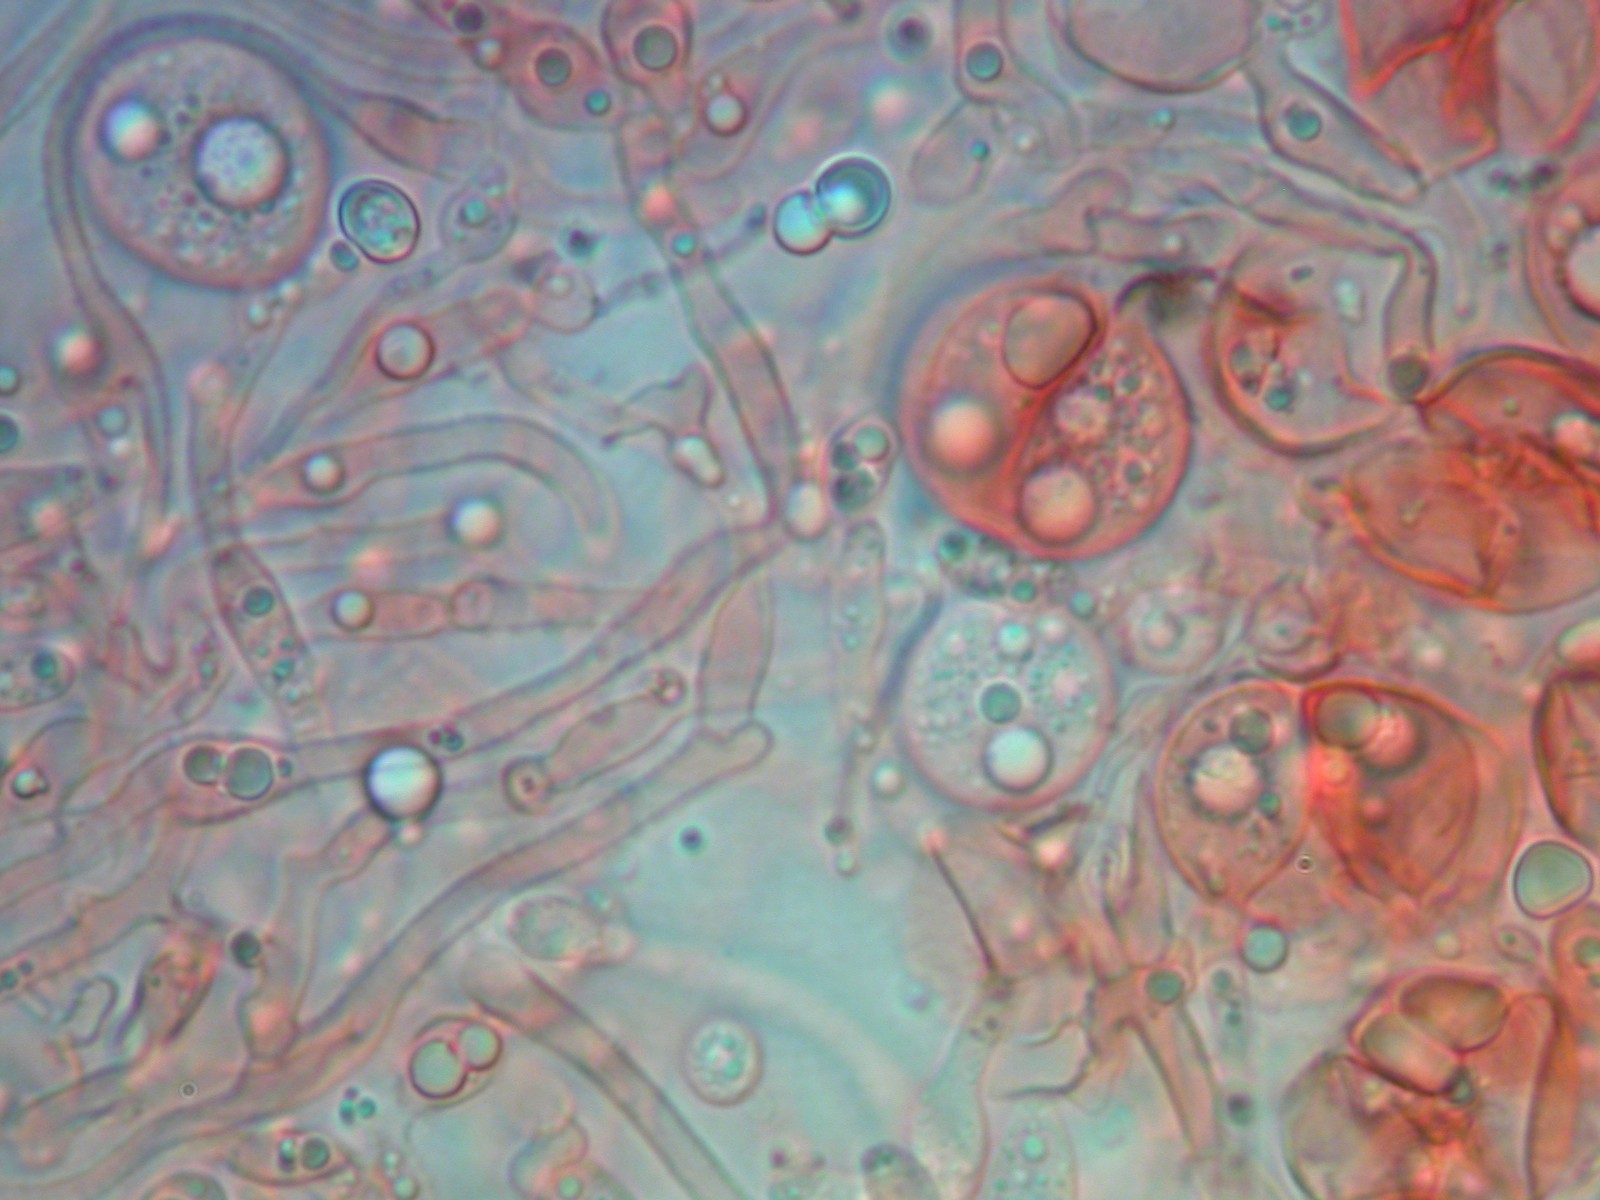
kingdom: Fungi
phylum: Basidiomycota
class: Tremellomycetes
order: Tremellales
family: Tremellaceae
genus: Phaeotremella
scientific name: Phaeotremella mycetophiloides
